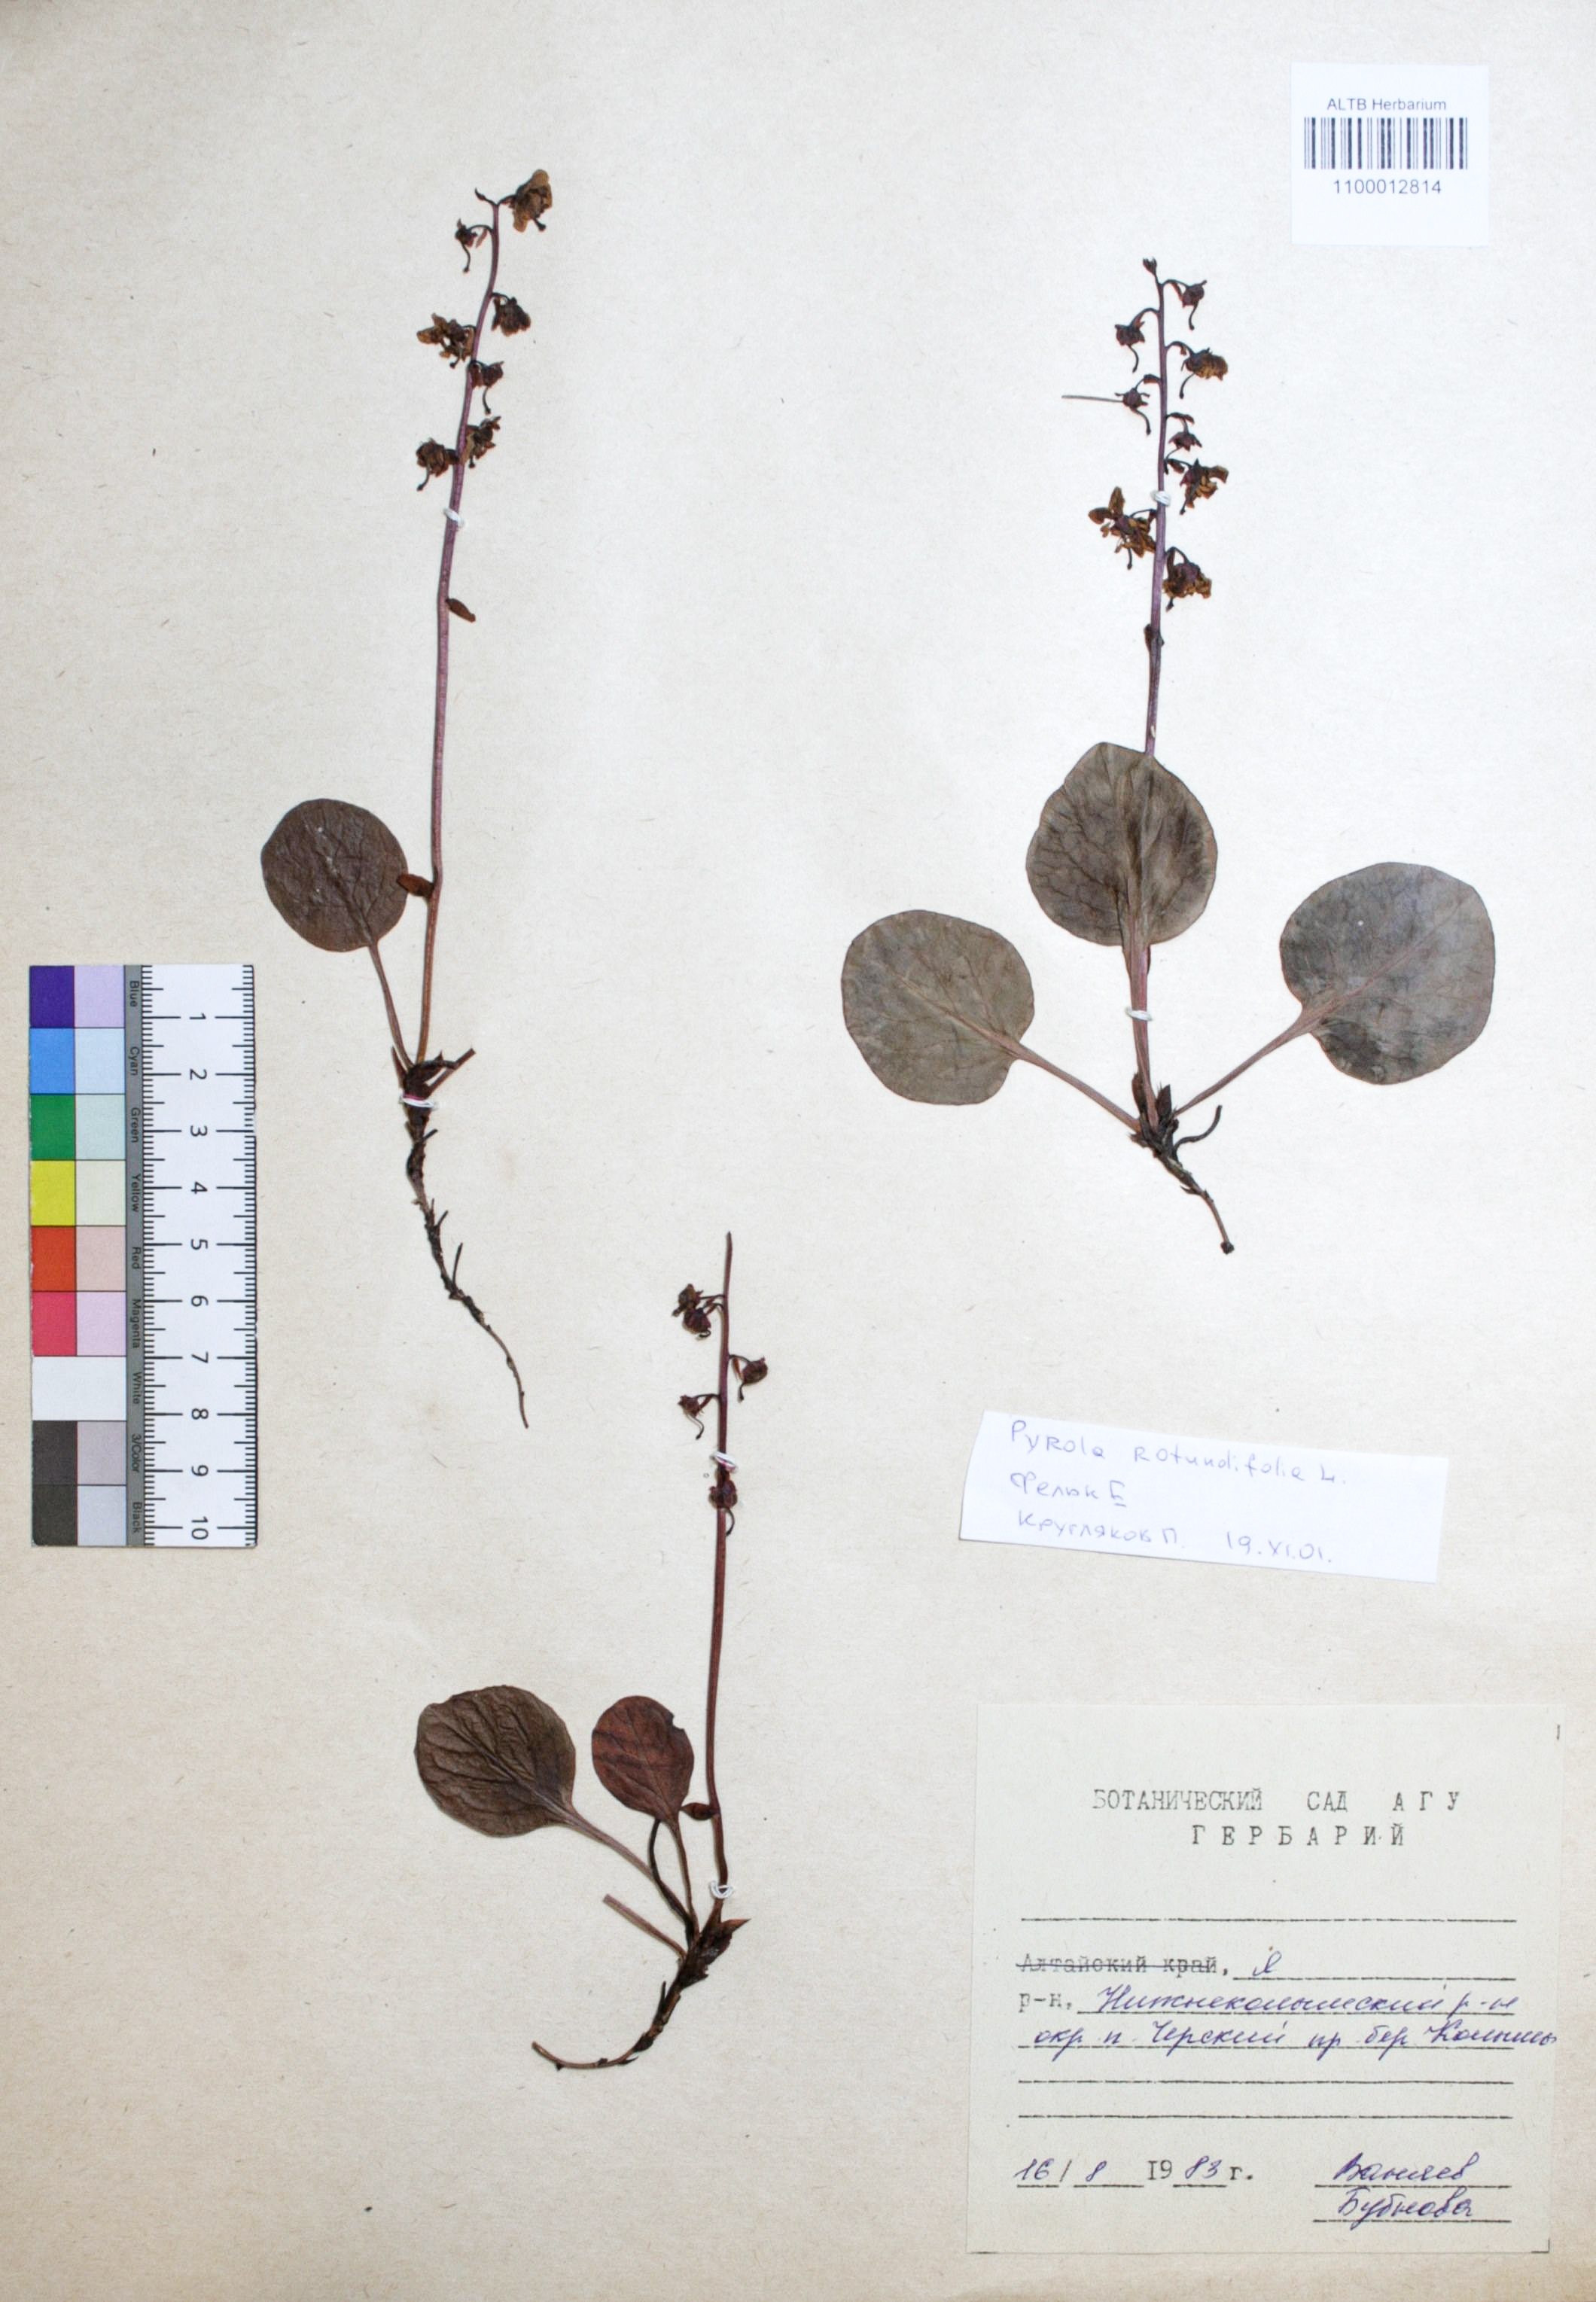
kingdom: Plantae
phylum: Tracheophyta
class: Magnoliopsida
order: Ericales
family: Ericaceae
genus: Pyrola
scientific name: Pyrola rotundifolia
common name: Round-leaved wintergreen
